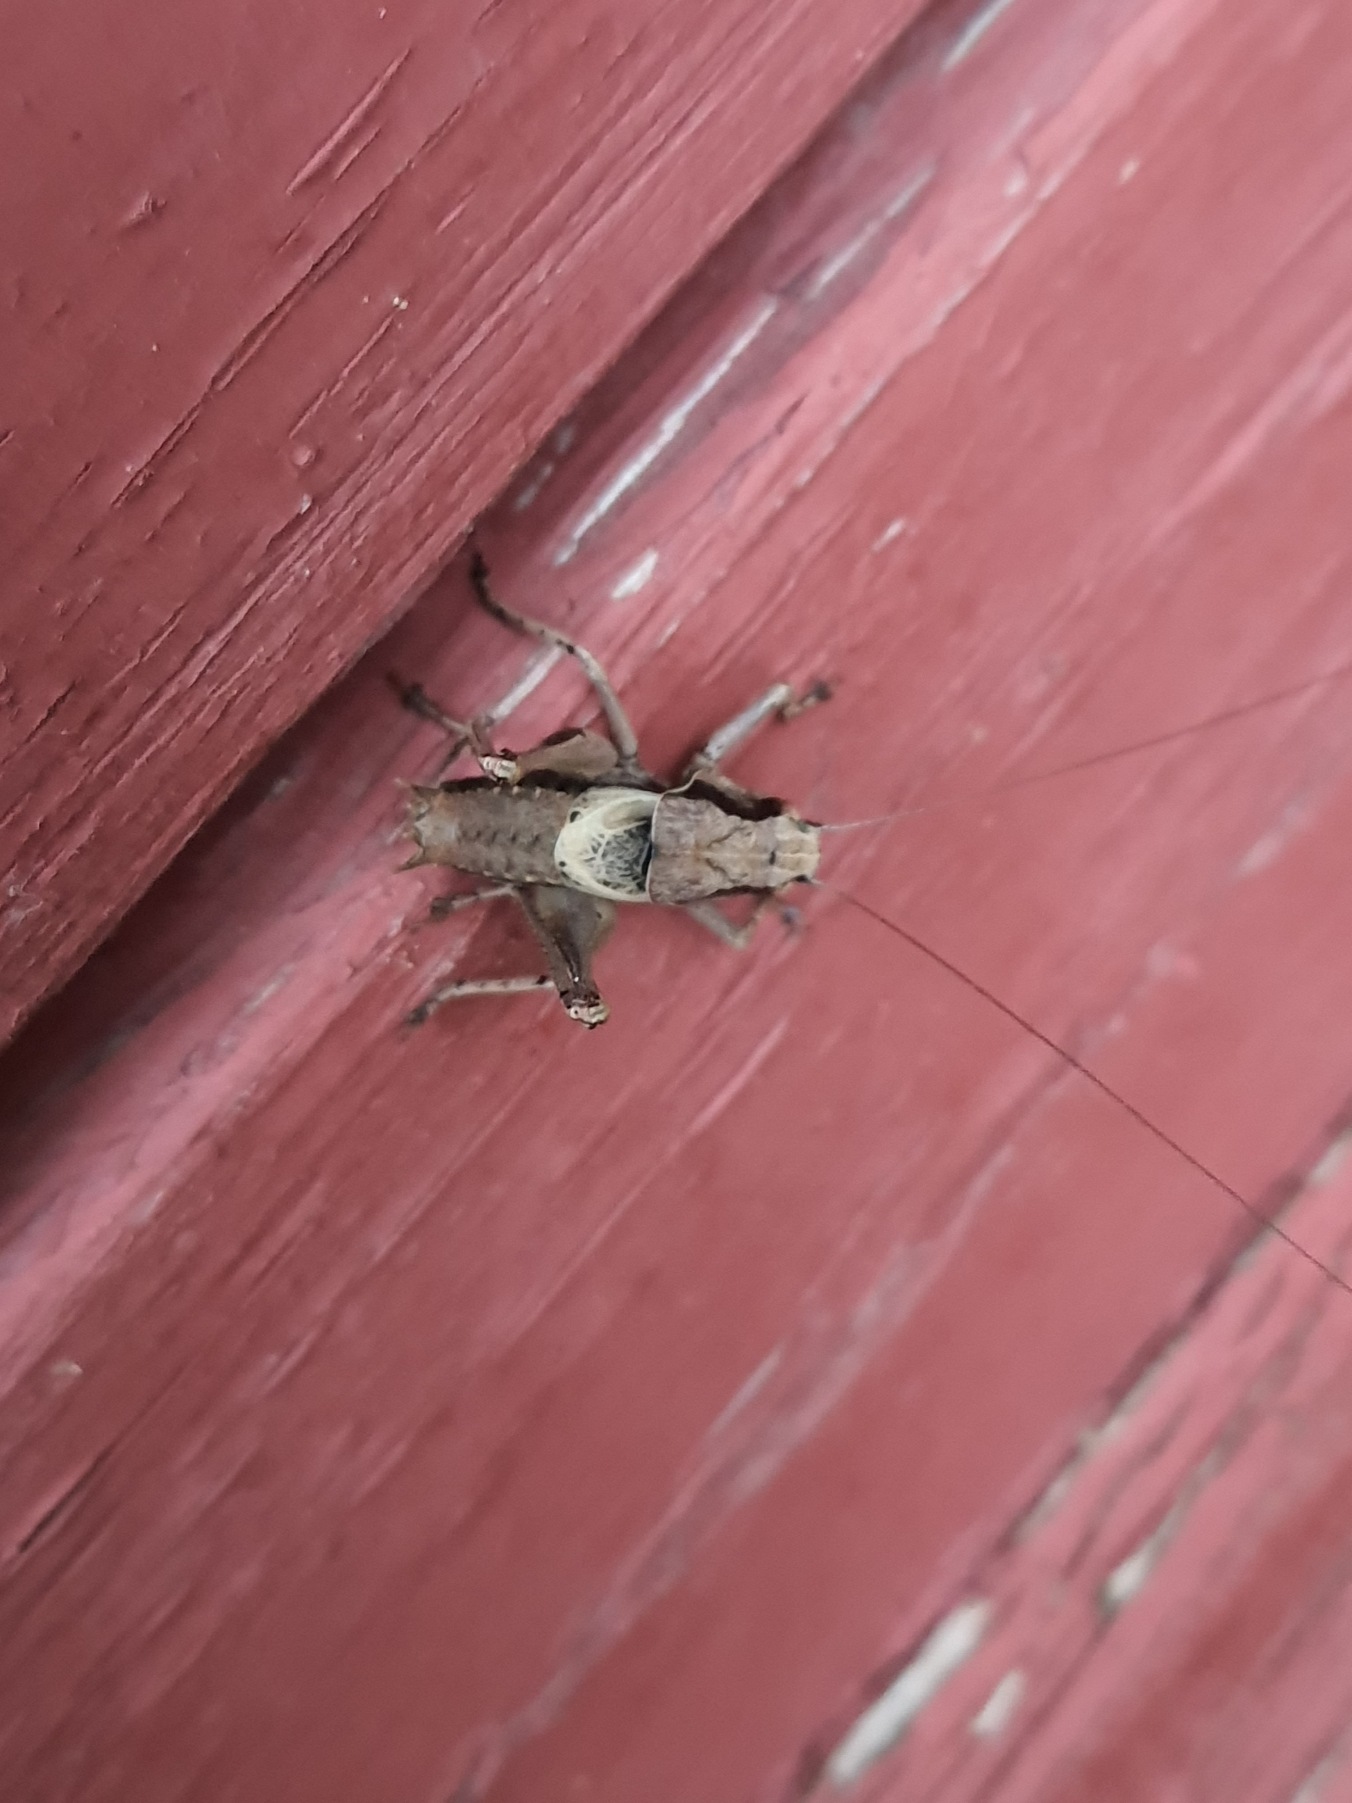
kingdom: Animalia
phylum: Arthropoda
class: Insecta
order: Orthoptera
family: Tettigoniidae
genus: Pholidoptera
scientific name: Pholidoptera griseoaptera
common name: Buskgræshoppe
